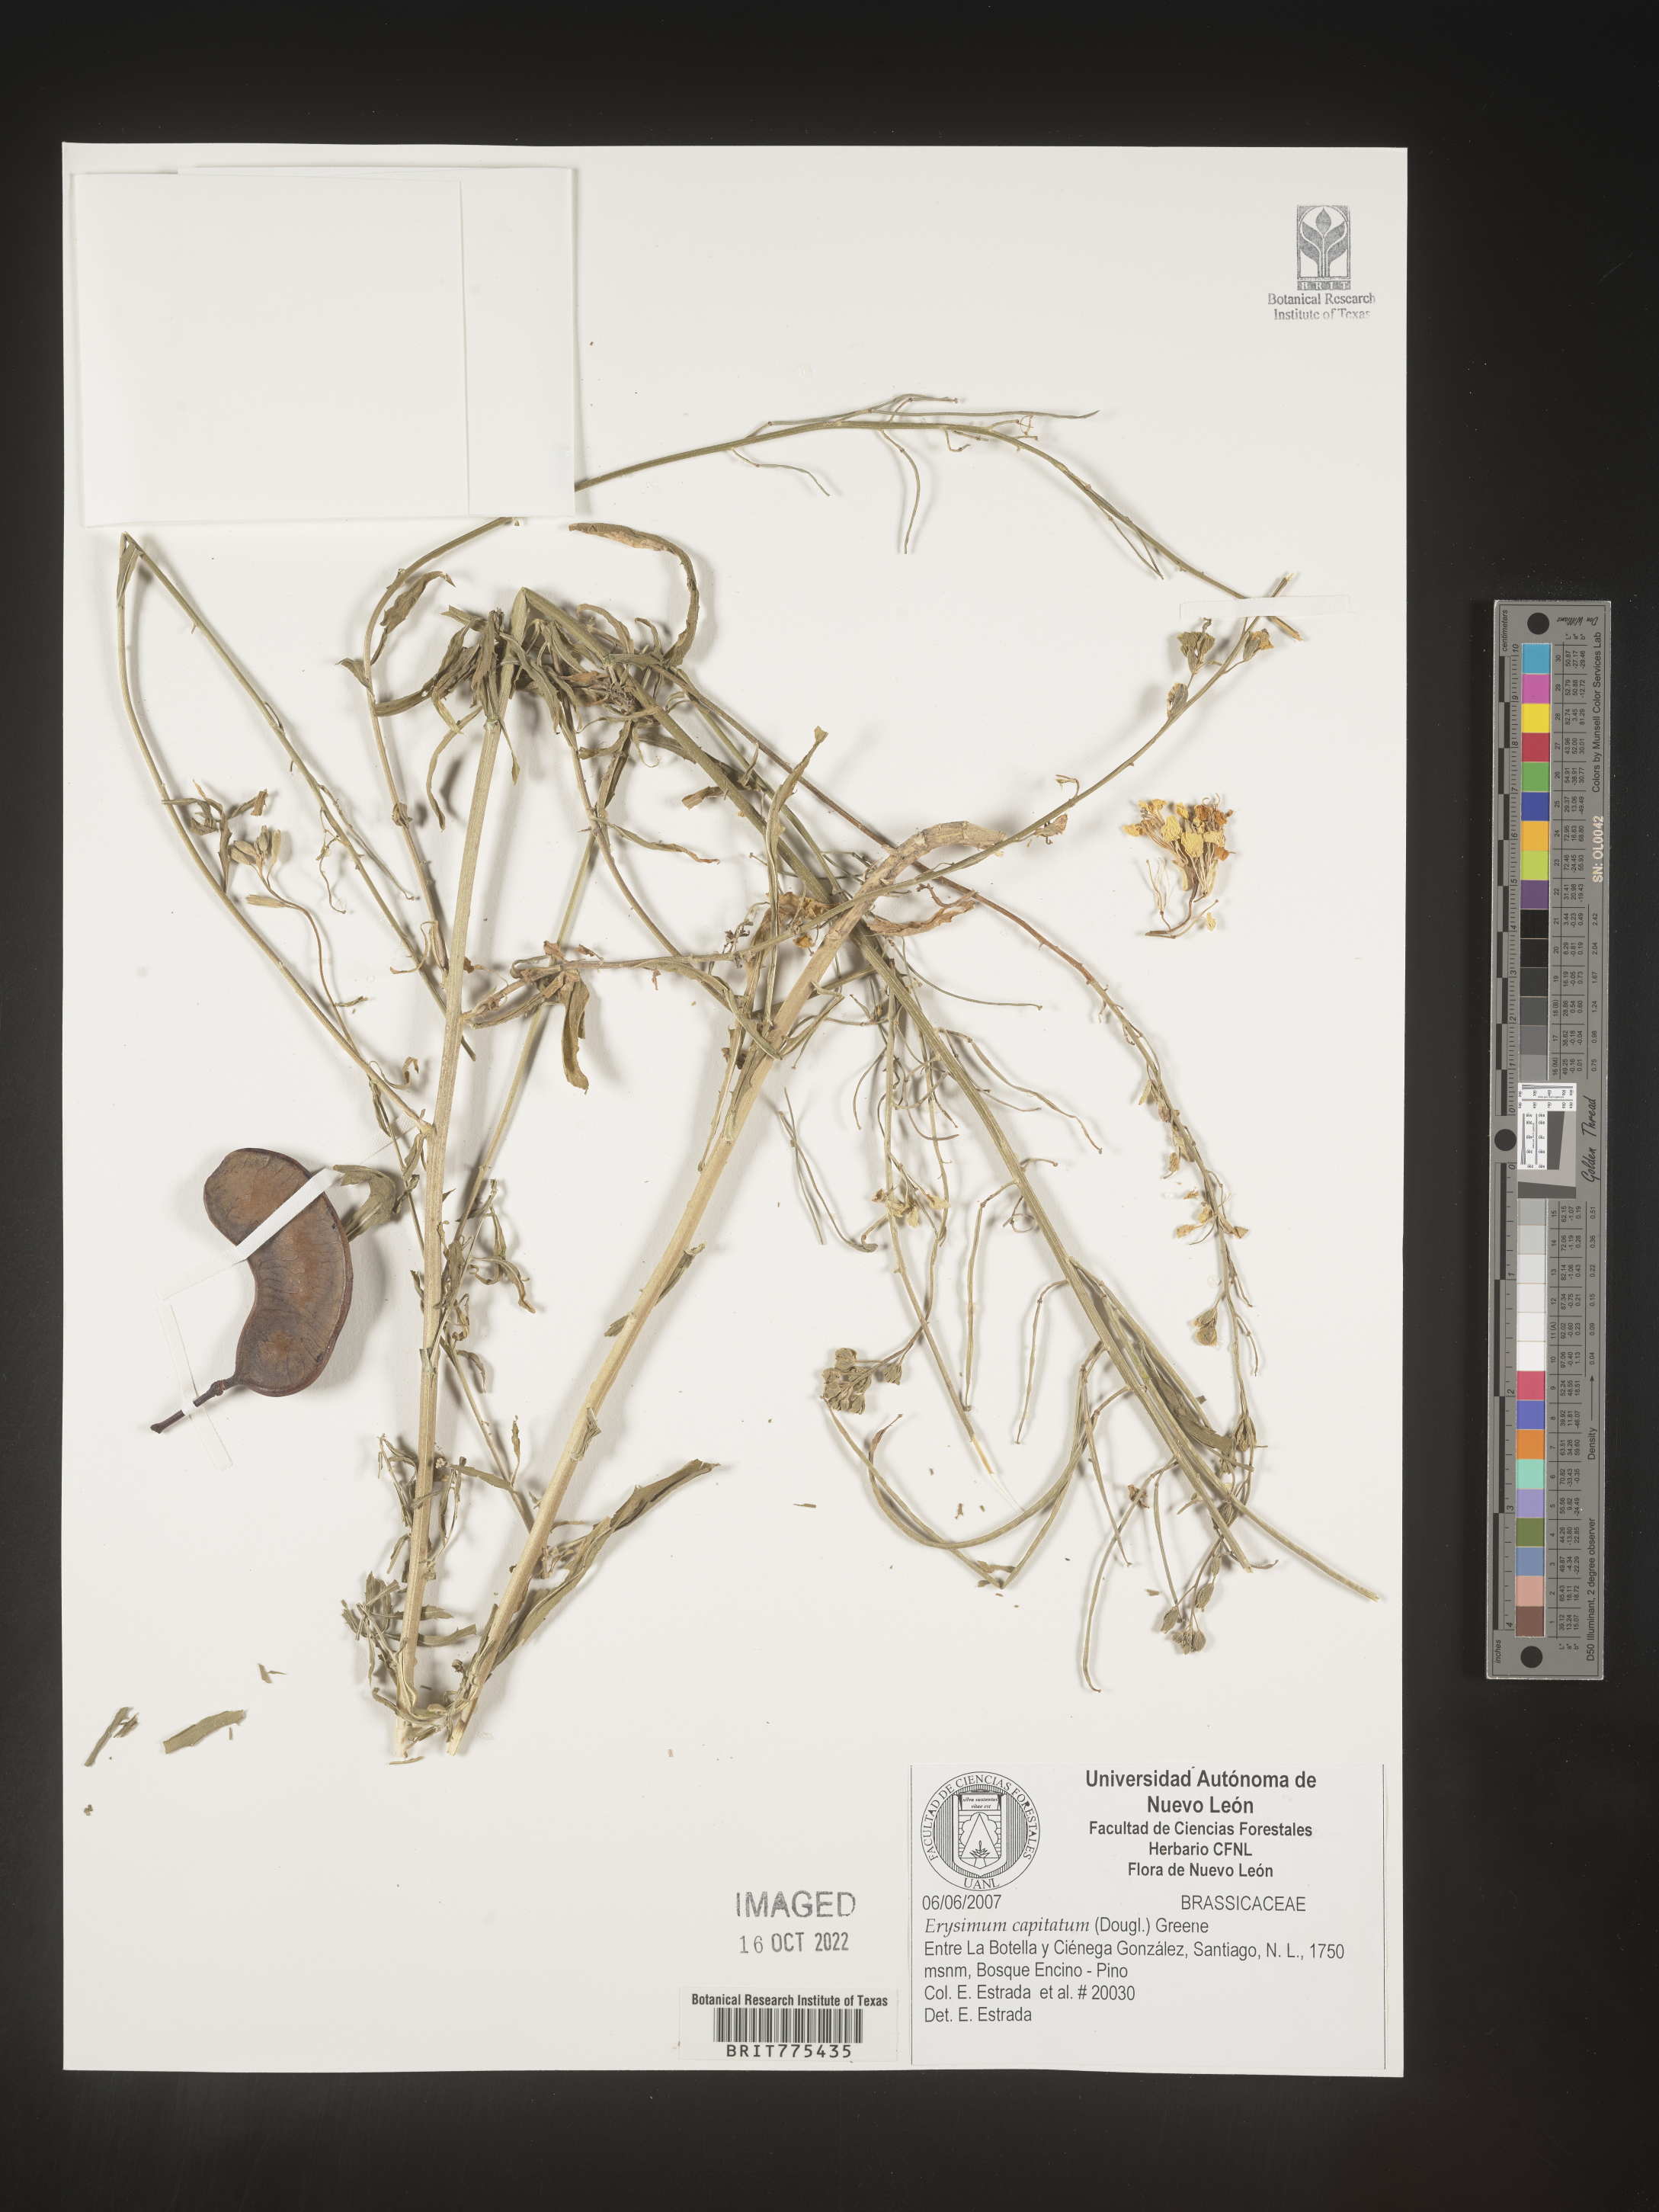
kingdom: Plantae
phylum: Tracheophyta
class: Magnoliopsida
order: Brassicales
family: Brassicaceae
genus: Erysimum
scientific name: Erysimum
